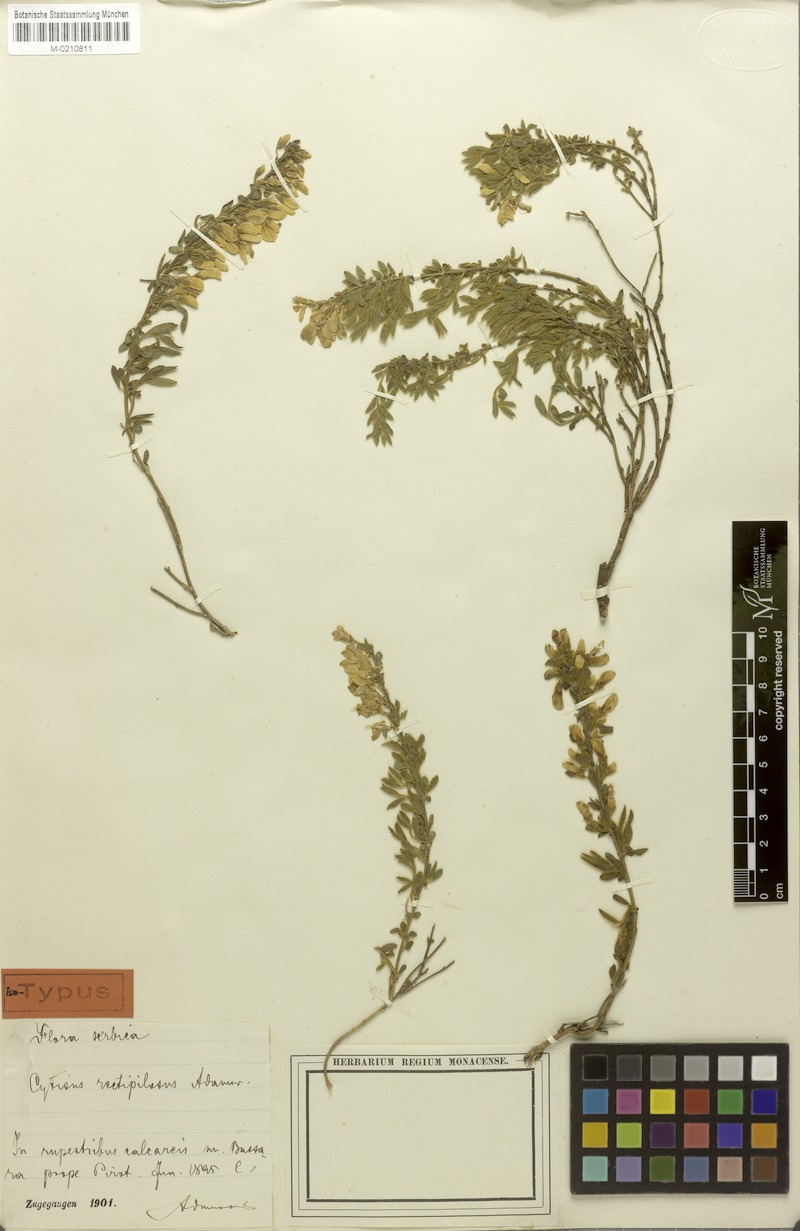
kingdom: Plantae
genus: Corothamus
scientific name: Corothamus rectipilosus
